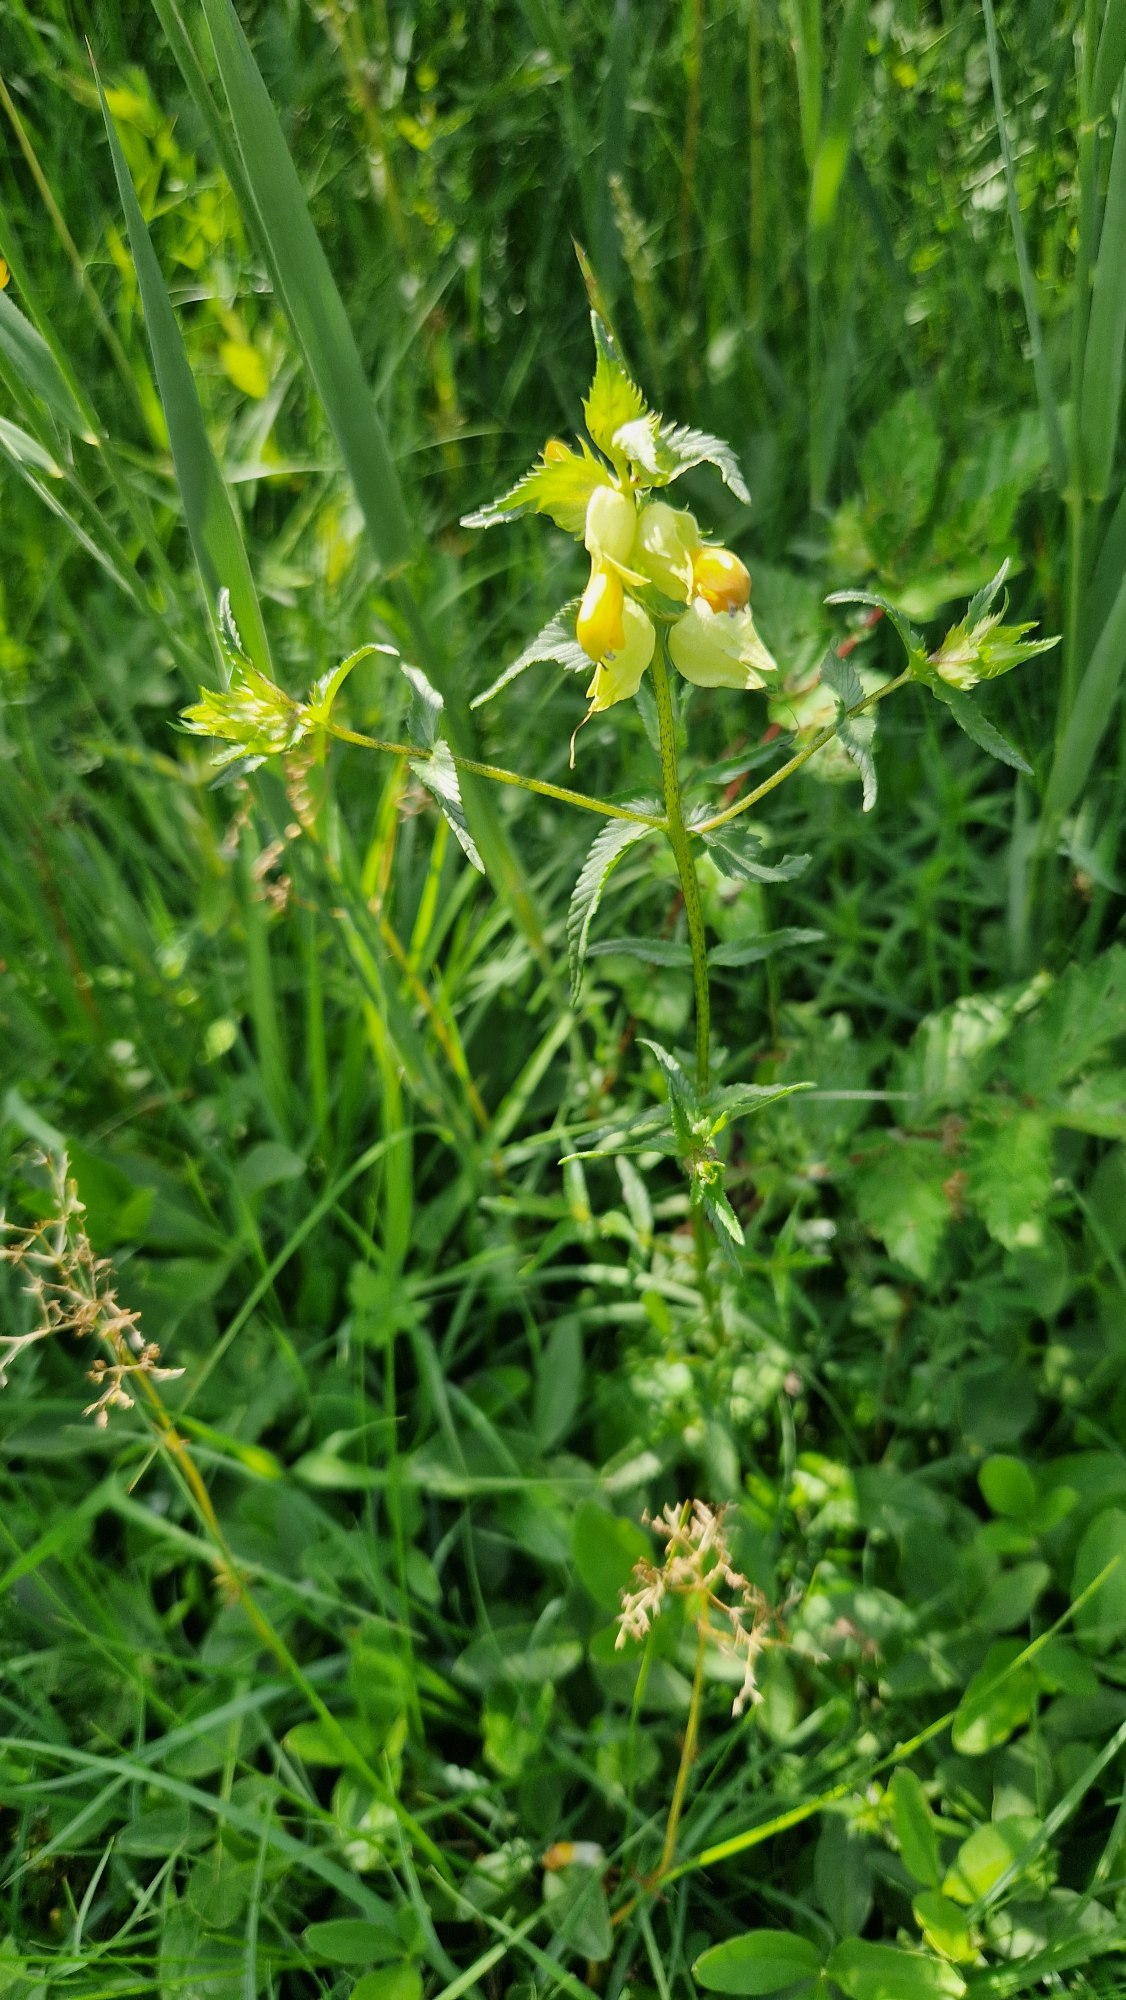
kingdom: Plantae
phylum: Tracheophyta
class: Magnoliopsida
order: Lamiales
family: Orobanchaceae
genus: Rhinanthus
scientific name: Rhinanthus
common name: Stor skjaller
